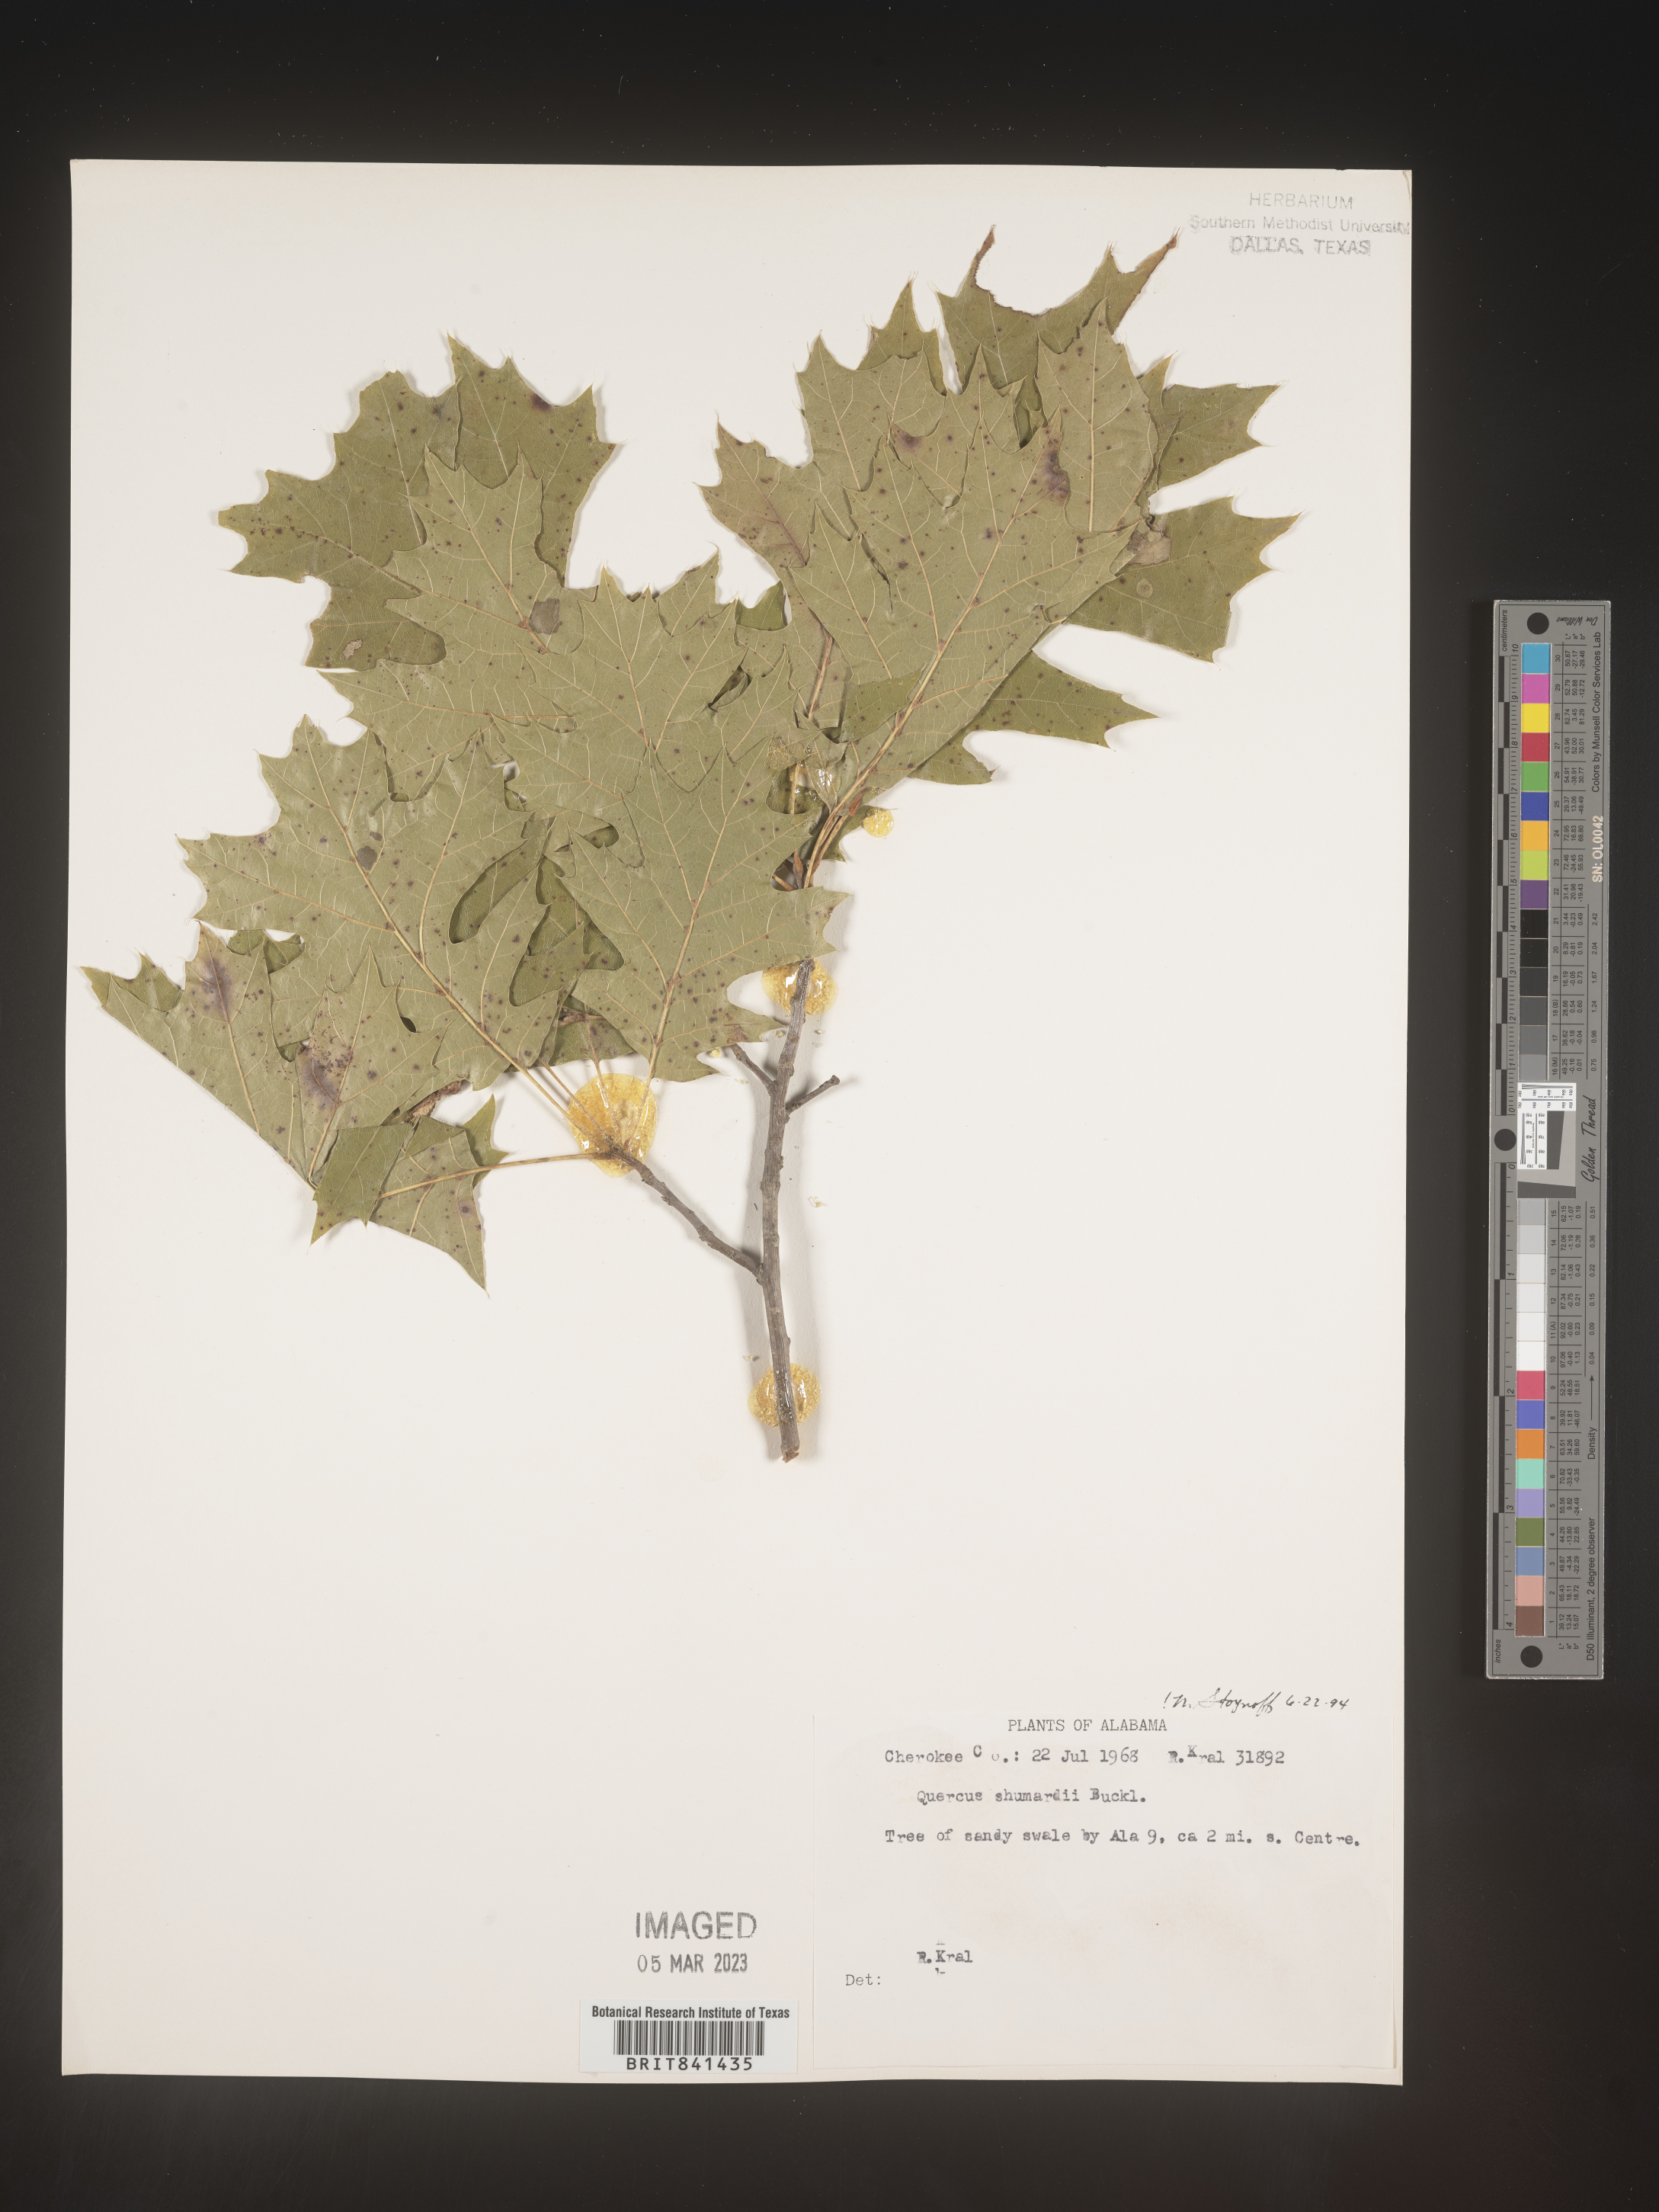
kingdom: Plantae
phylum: Tracheophyta
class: Magnoliopsida
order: Fagales
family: Fagaceae
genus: Quercus
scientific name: Quercus shumardii
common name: Shumard oak
